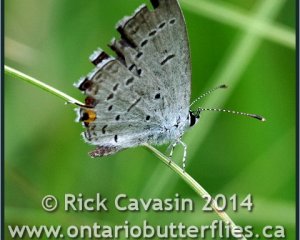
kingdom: Animalia
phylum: Arthropoda
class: Insecta
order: Lepidoptera
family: Lycaenidae
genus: Elkalyce
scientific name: Elkalyce comyntas
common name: Eastern Tailed-Blue
